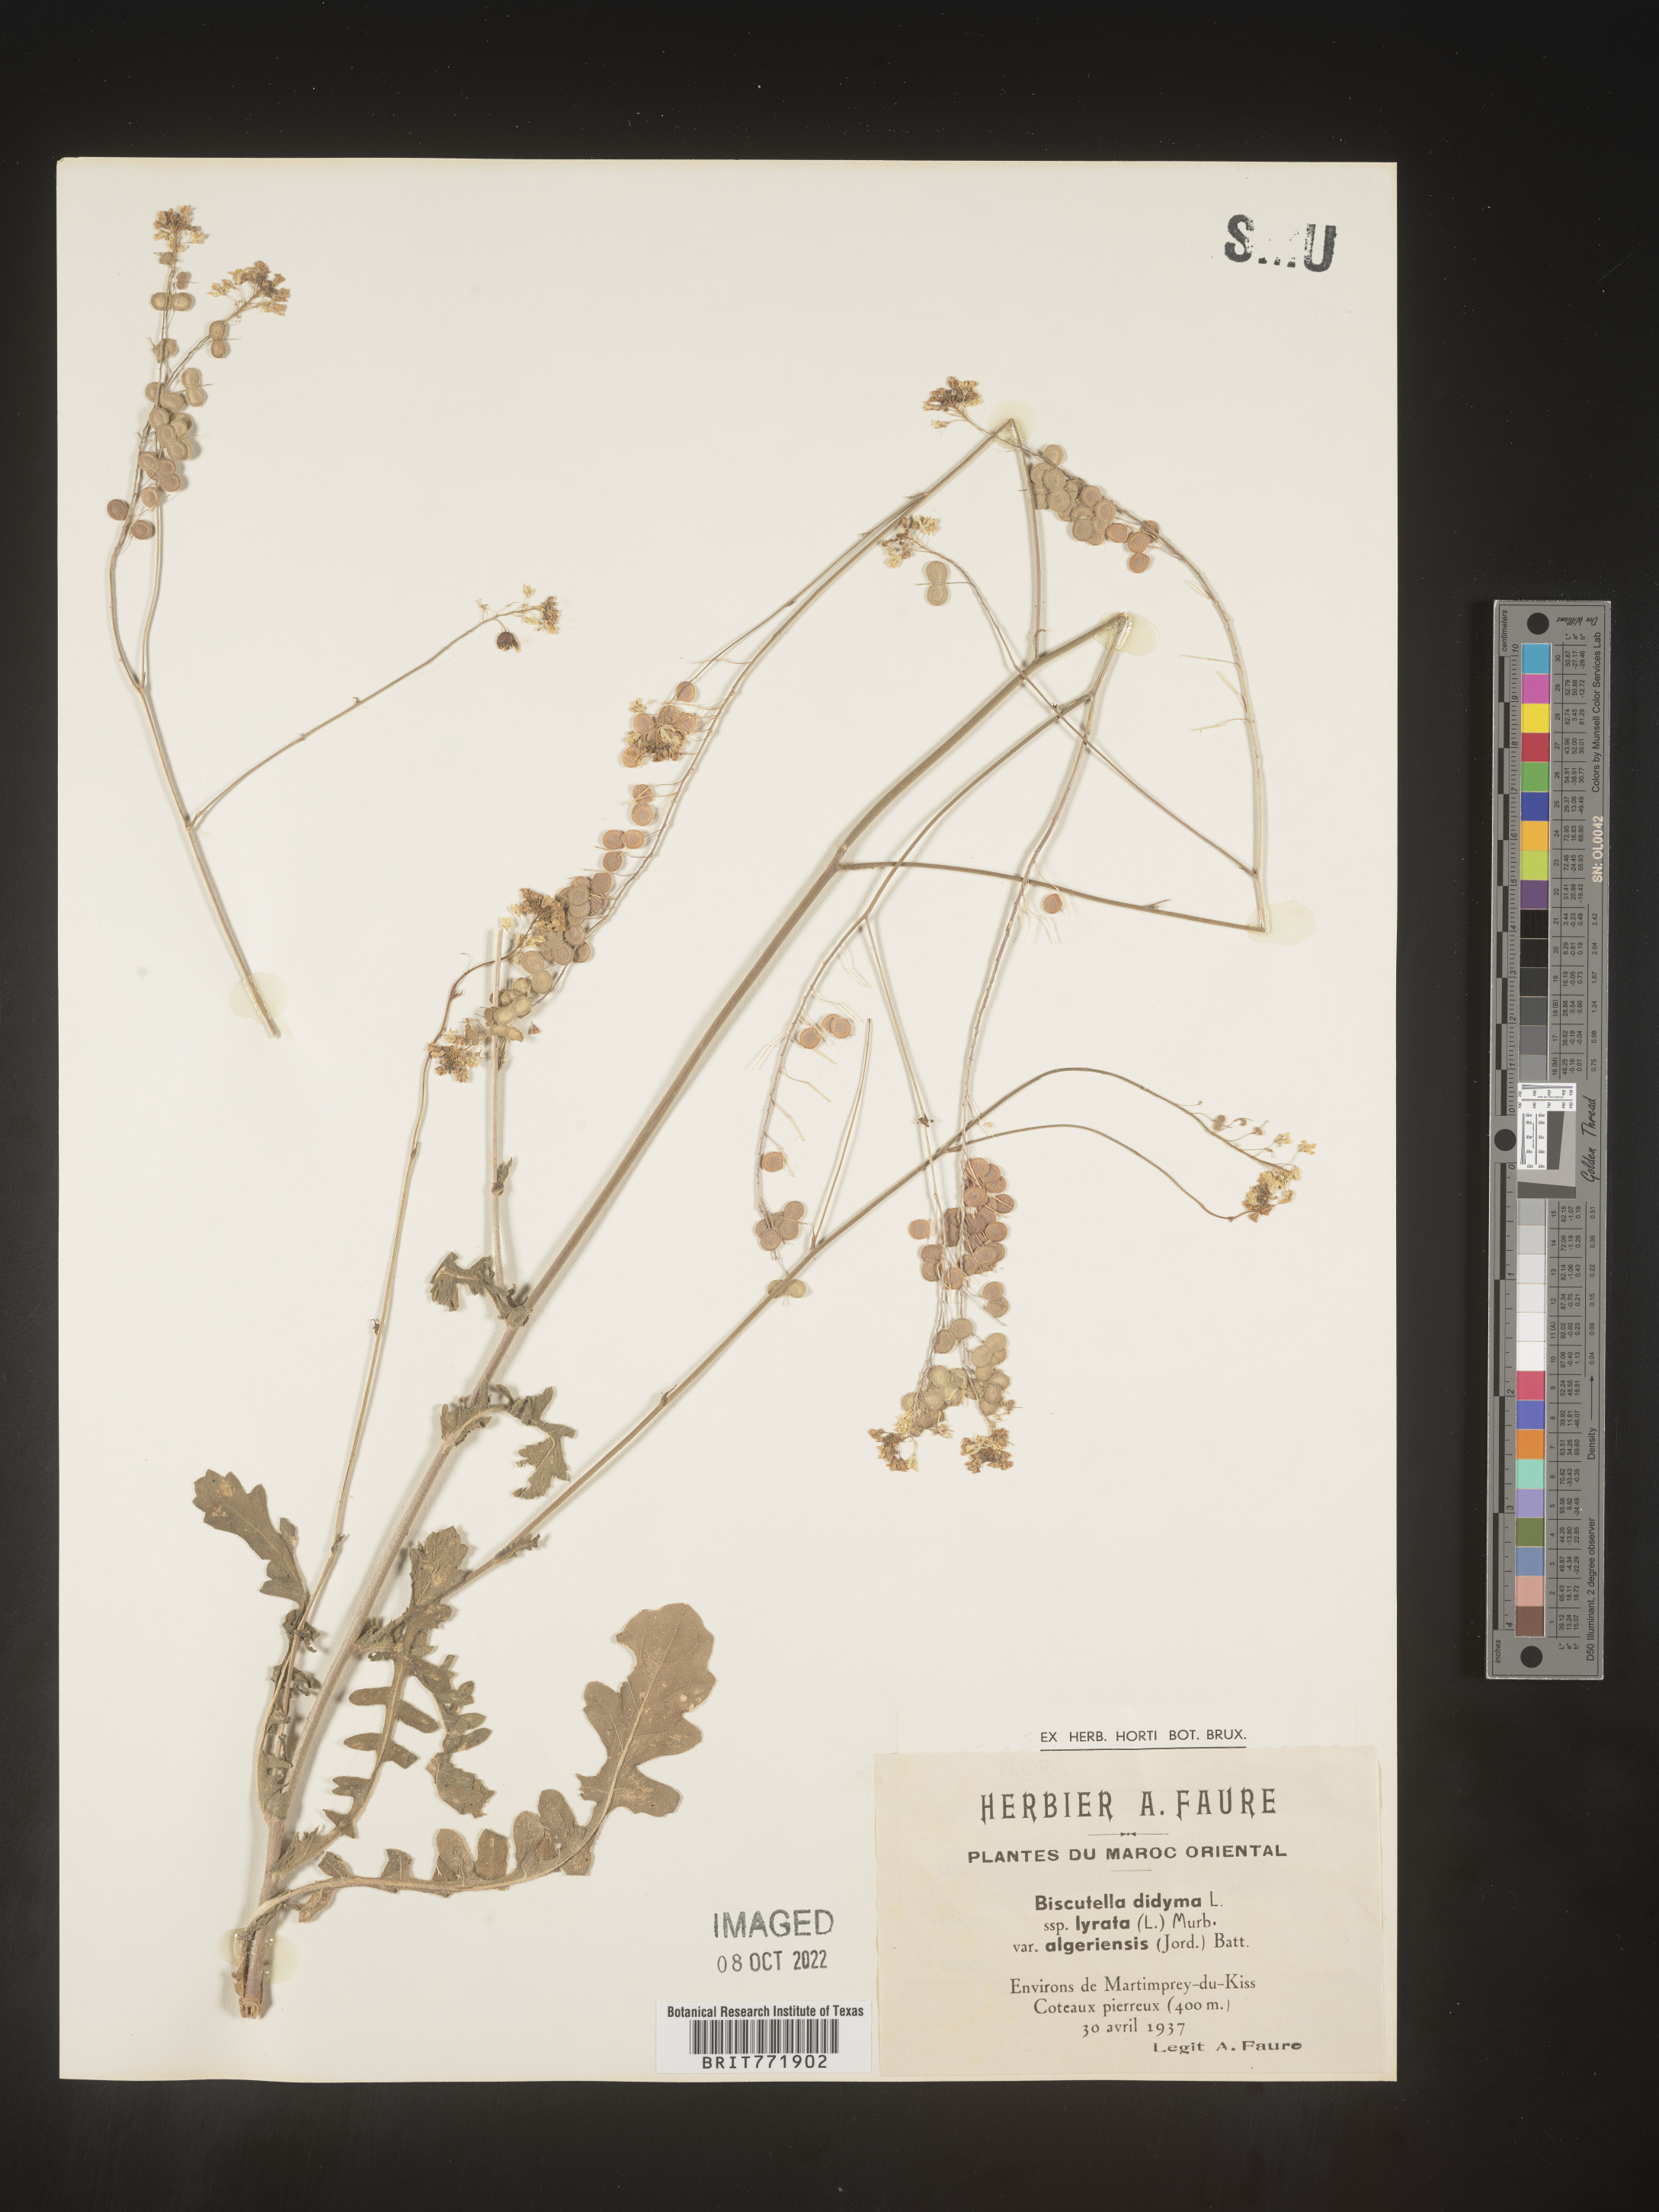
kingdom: Plantae
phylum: Tracheophyta
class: Magnoliopsida
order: Brassicales
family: Brassicaceae
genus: Biscutella
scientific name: Biscutella
